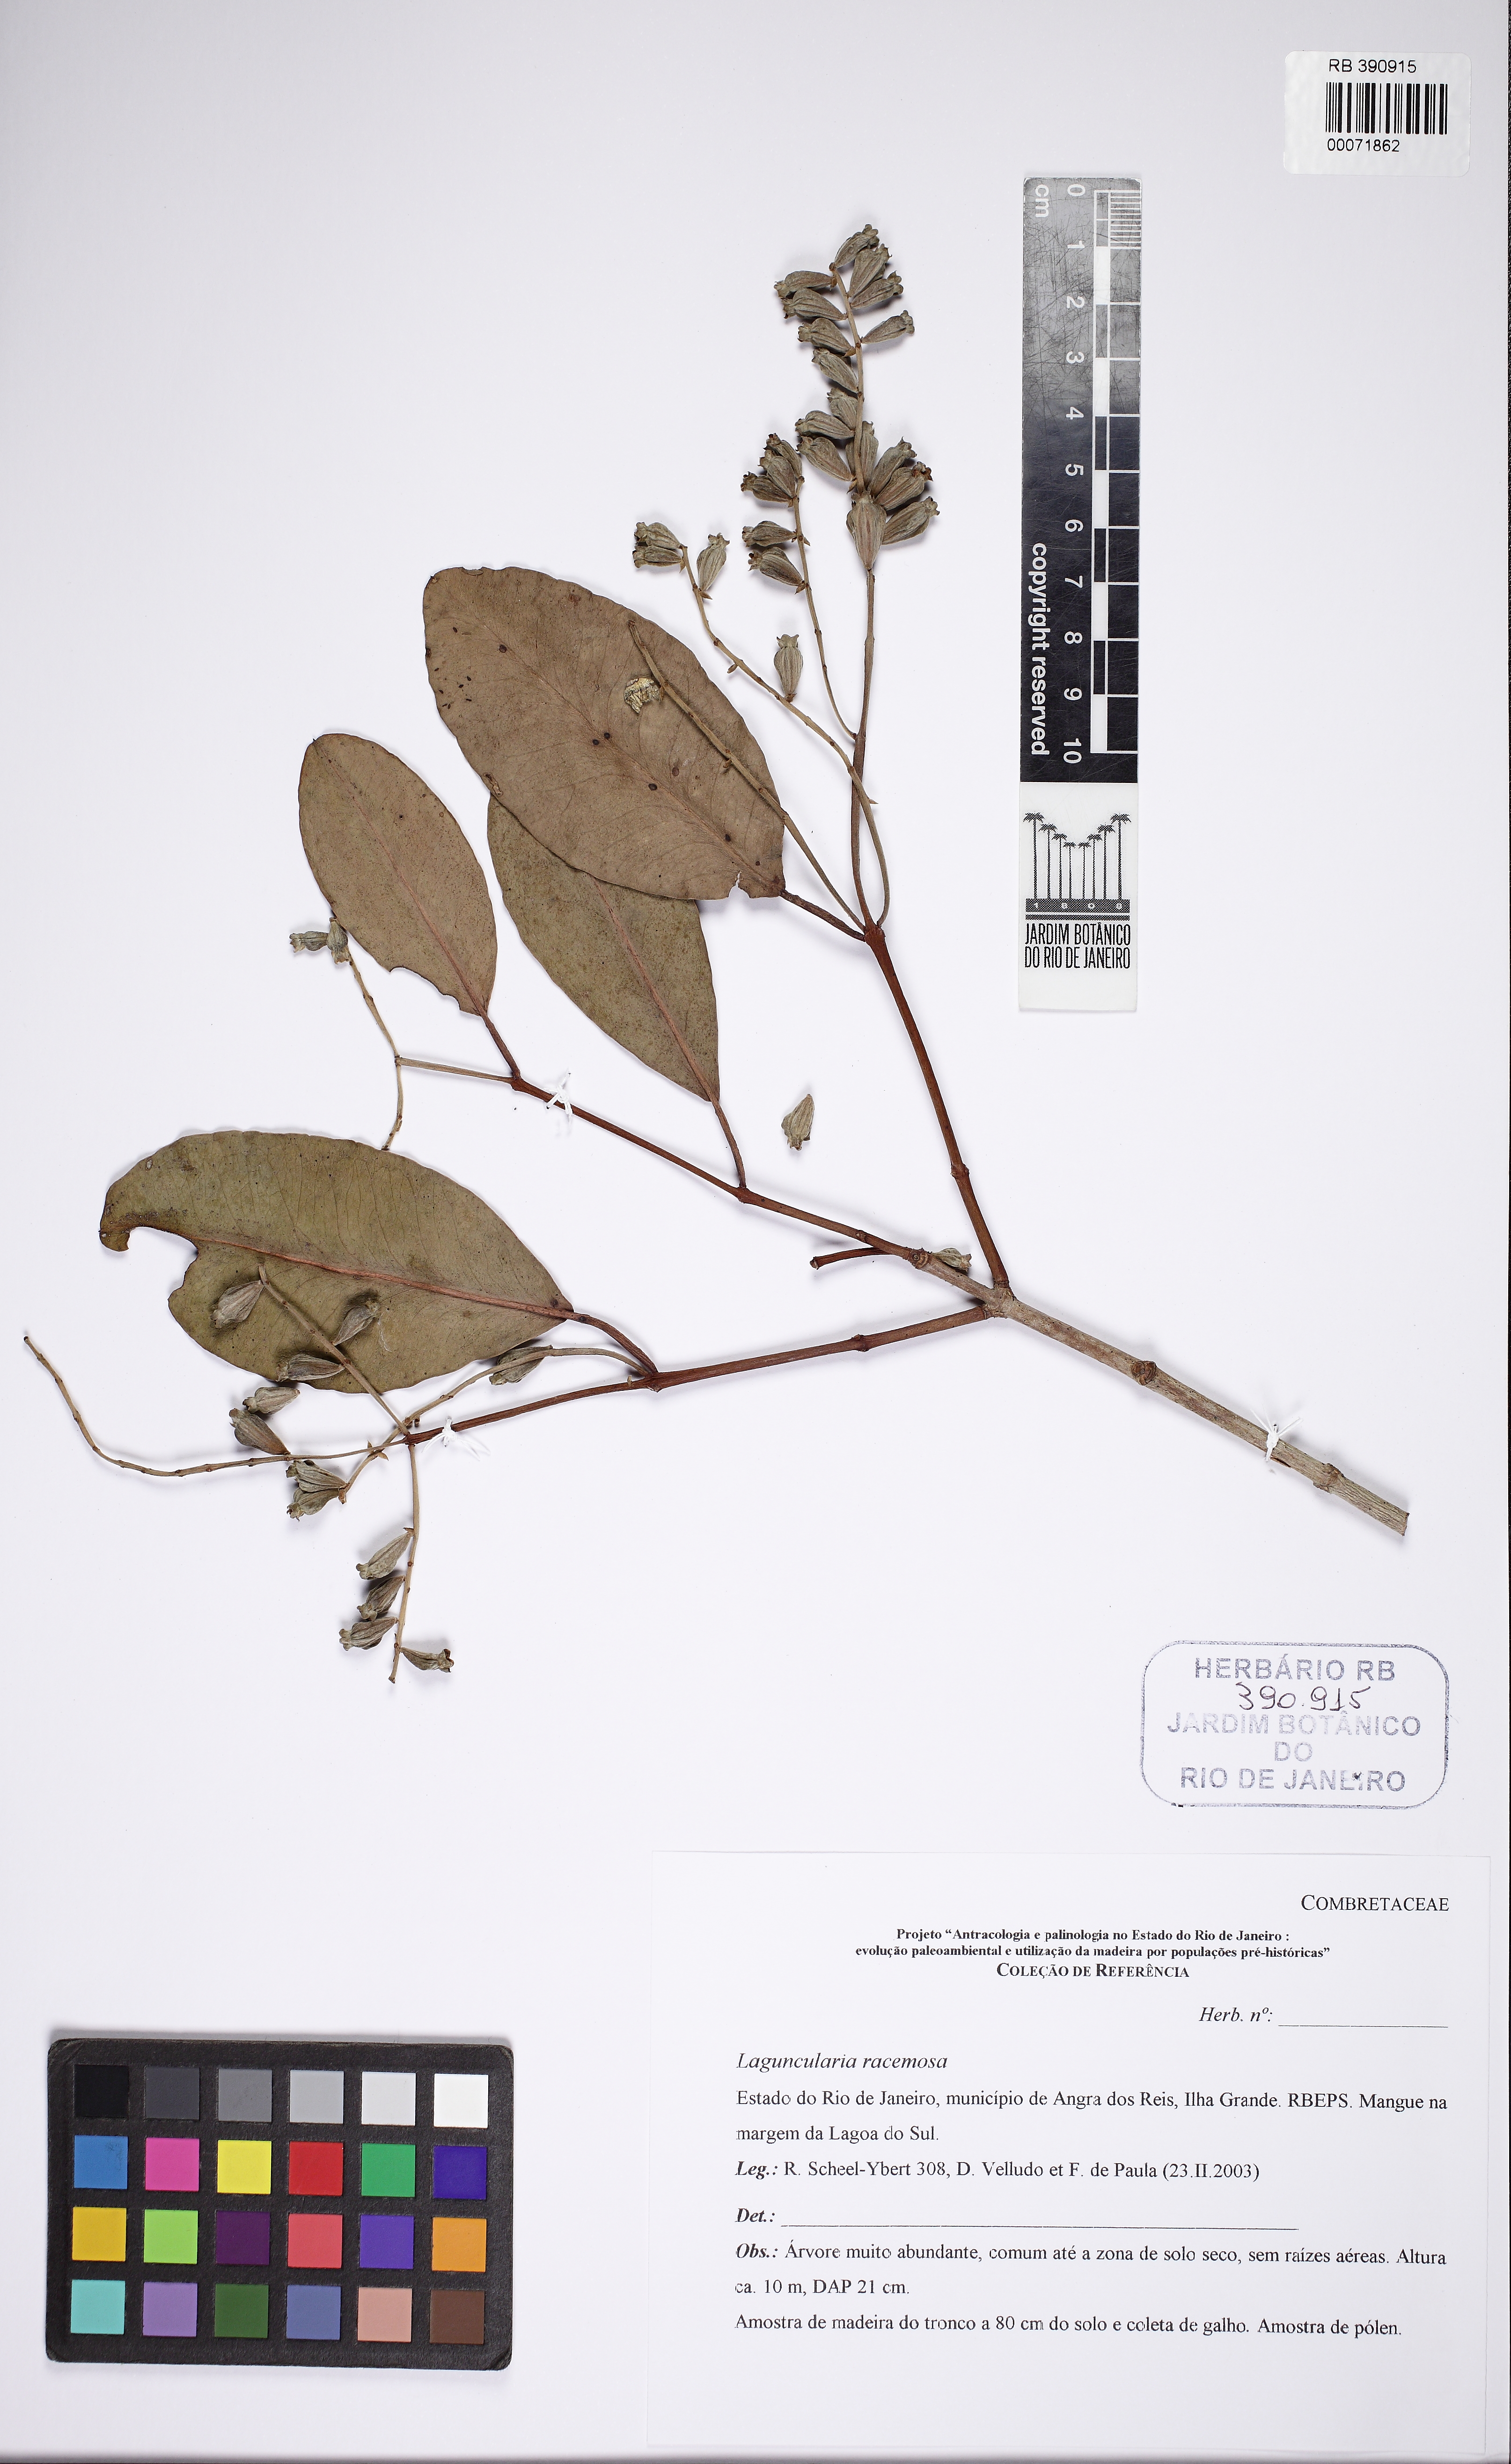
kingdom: Plantae
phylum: Tracheophyta
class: Magnoliopsida
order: Myrtales
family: Combretaceae
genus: Laguncularia
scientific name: Laguncularia racemosa
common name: White mangrove
